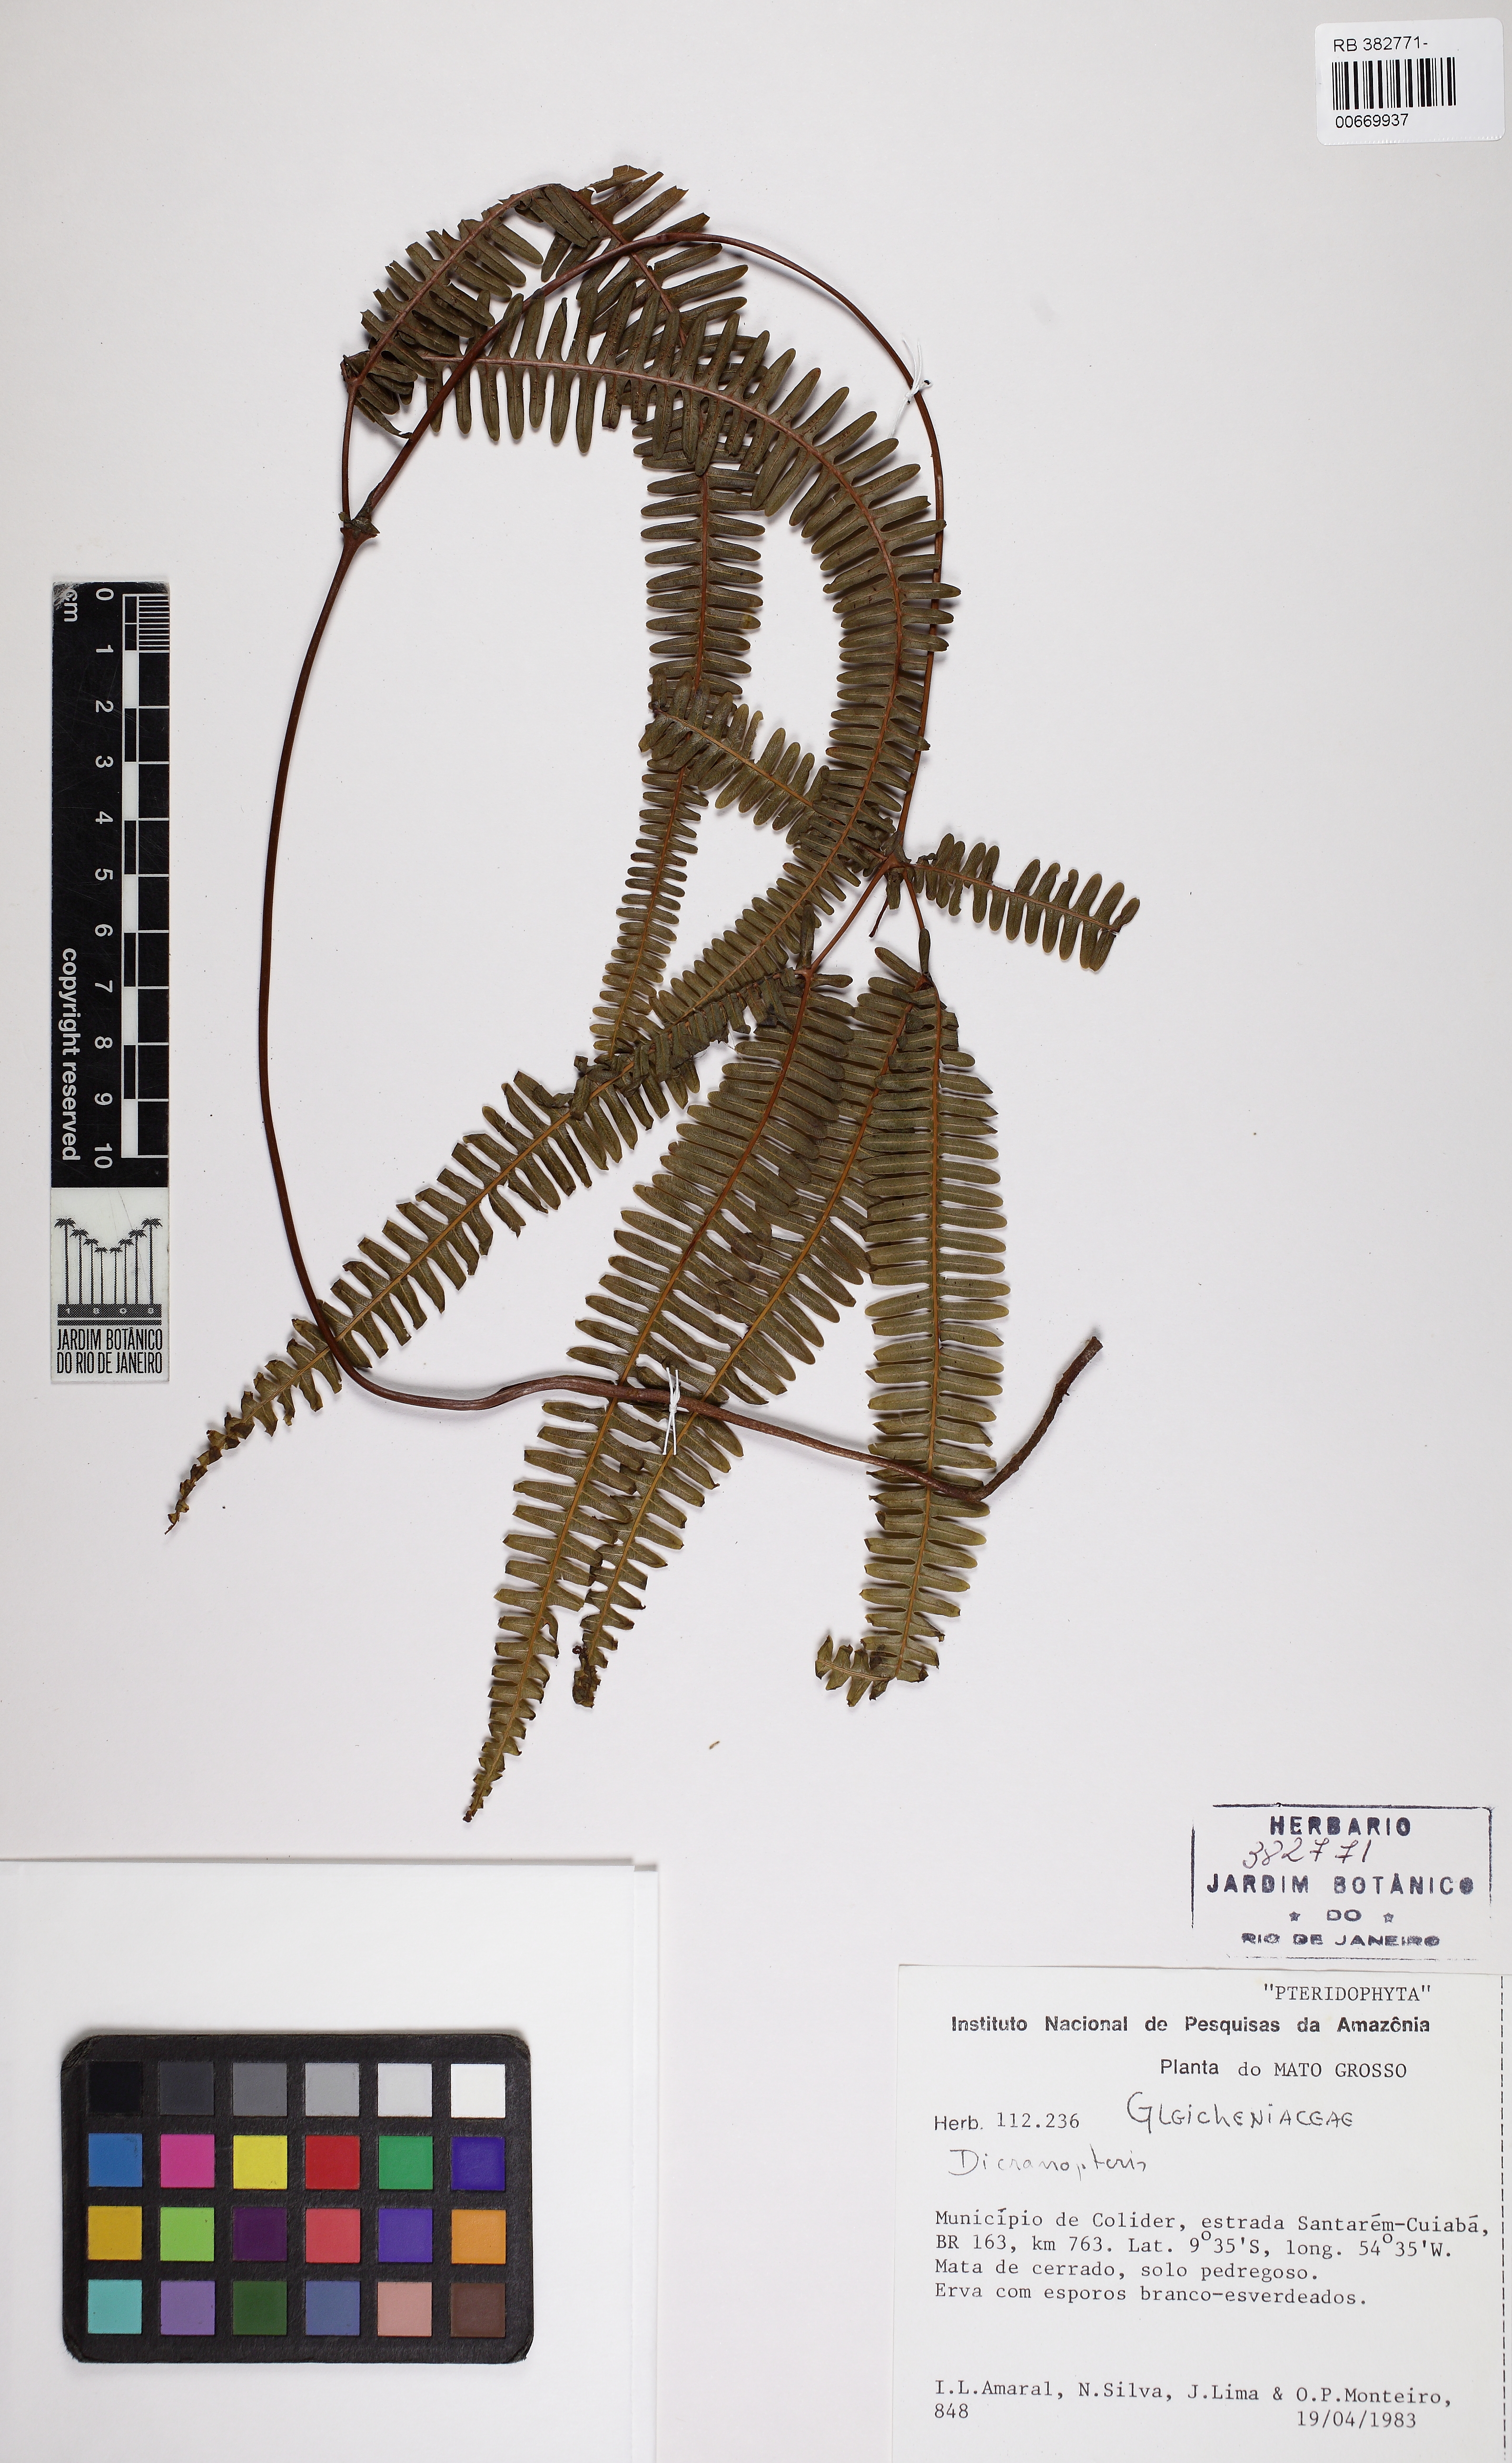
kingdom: Plantae
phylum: Tracheophyta
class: Polypodiopsida
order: Gleicheniales
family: Gleicheniaceae
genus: Dicranopteris
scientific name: Dicranopteris flexuosa
